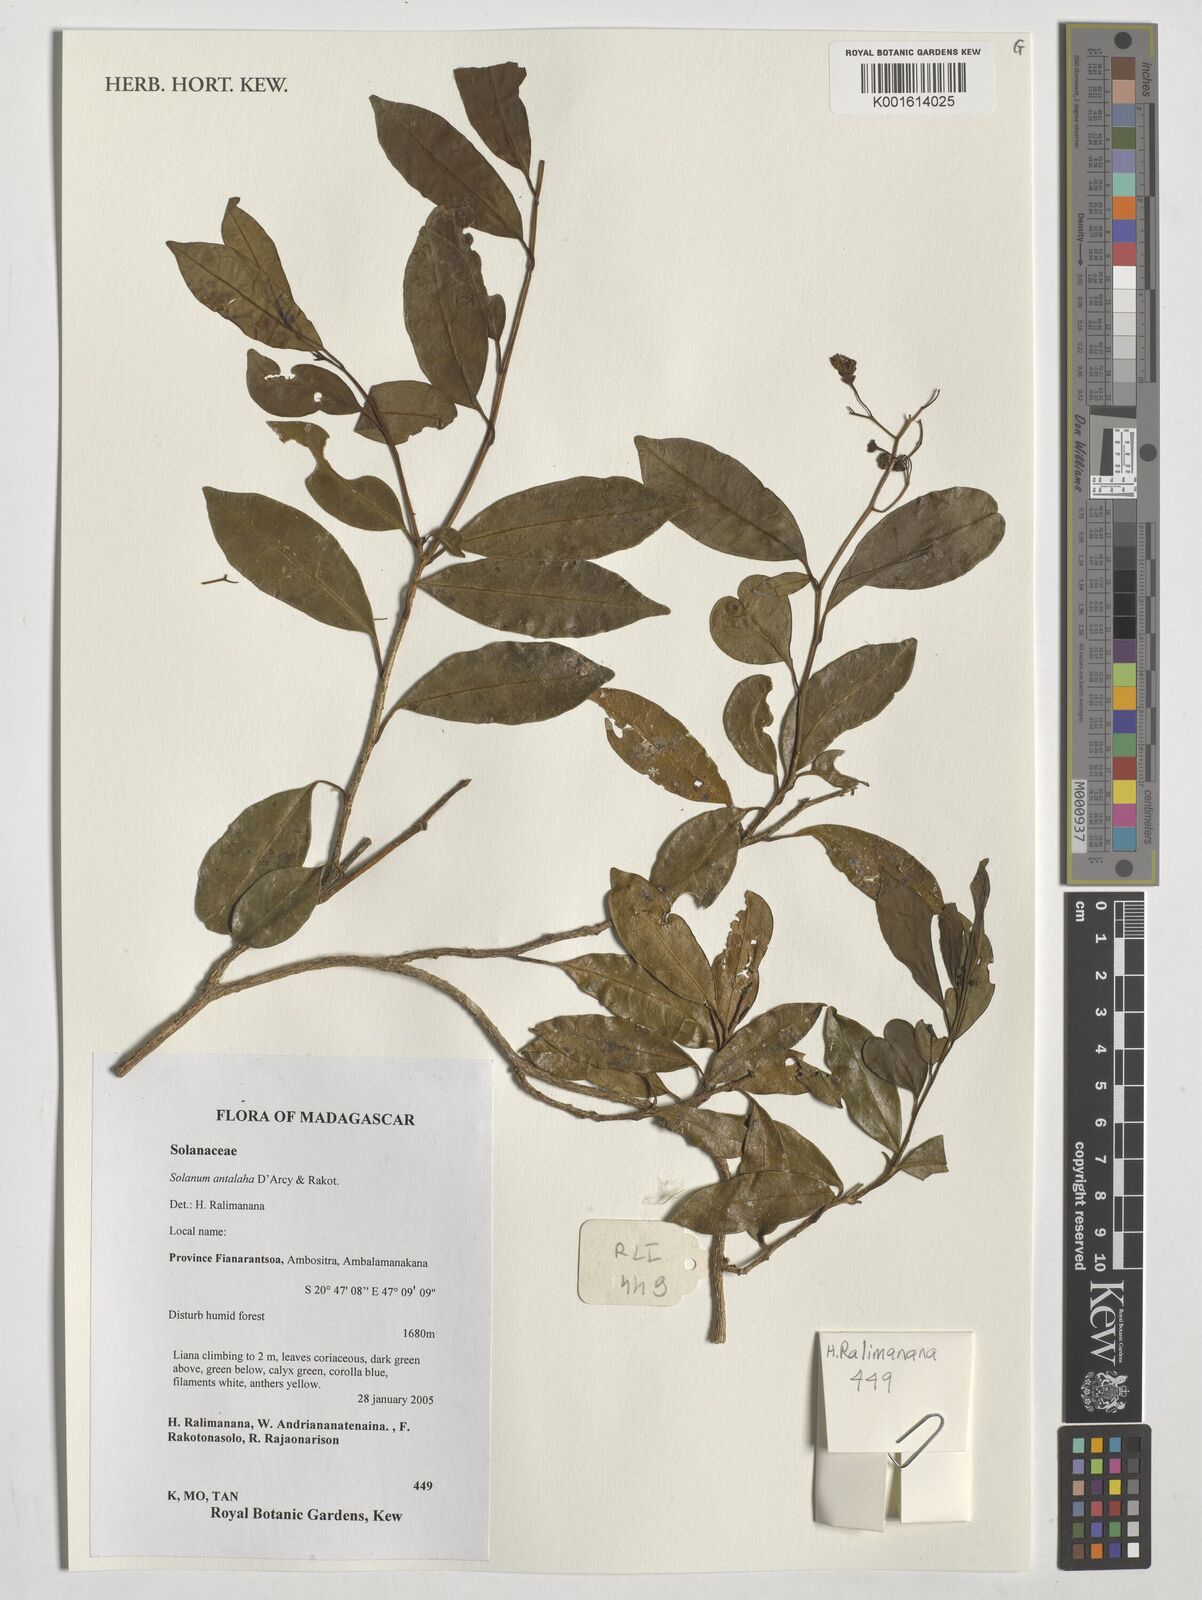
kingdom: Plantae
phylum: Tracheophyta
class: Magnoliopsida
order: Solanales
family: Solanaceae
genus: Solanum
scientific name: Solanum antalaha
